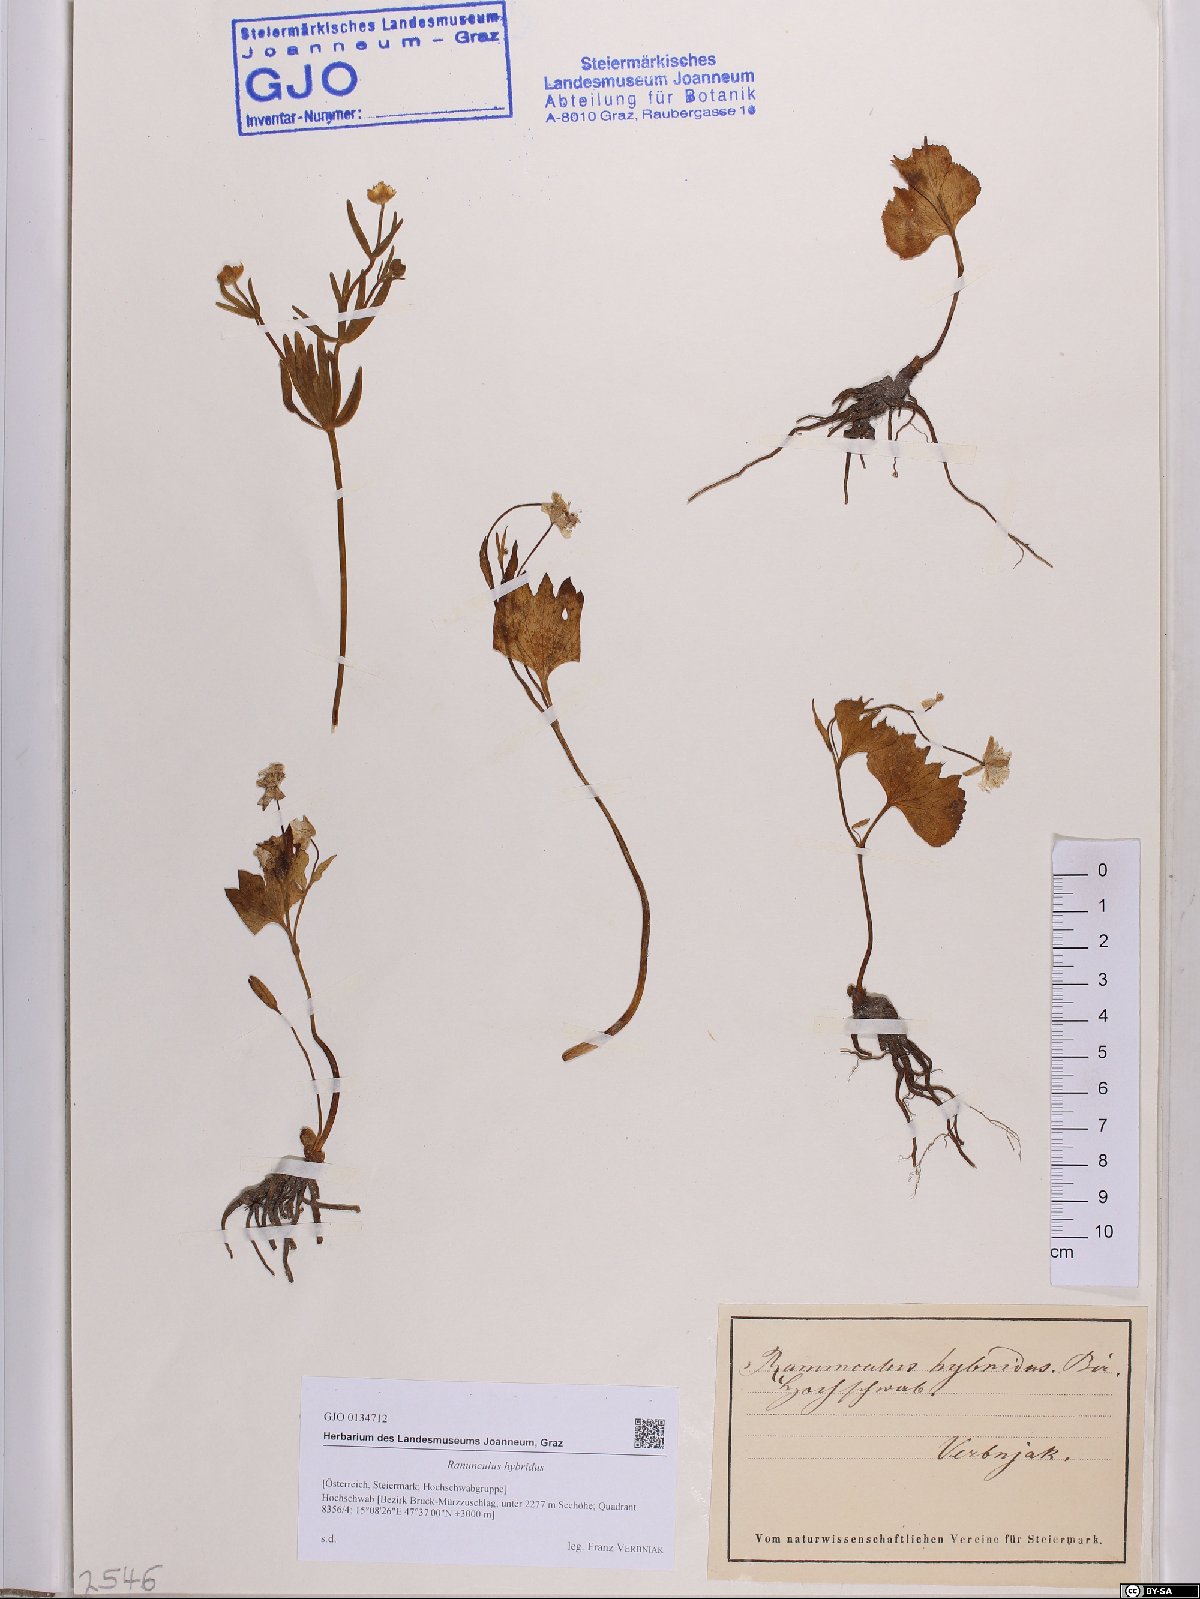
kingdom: Plantae
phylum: Tracheophyta
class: Magnoliopsida
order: Ranunculales
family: Ranunculaceae
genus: Ranunculus
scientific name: Ranunculus hybridus
